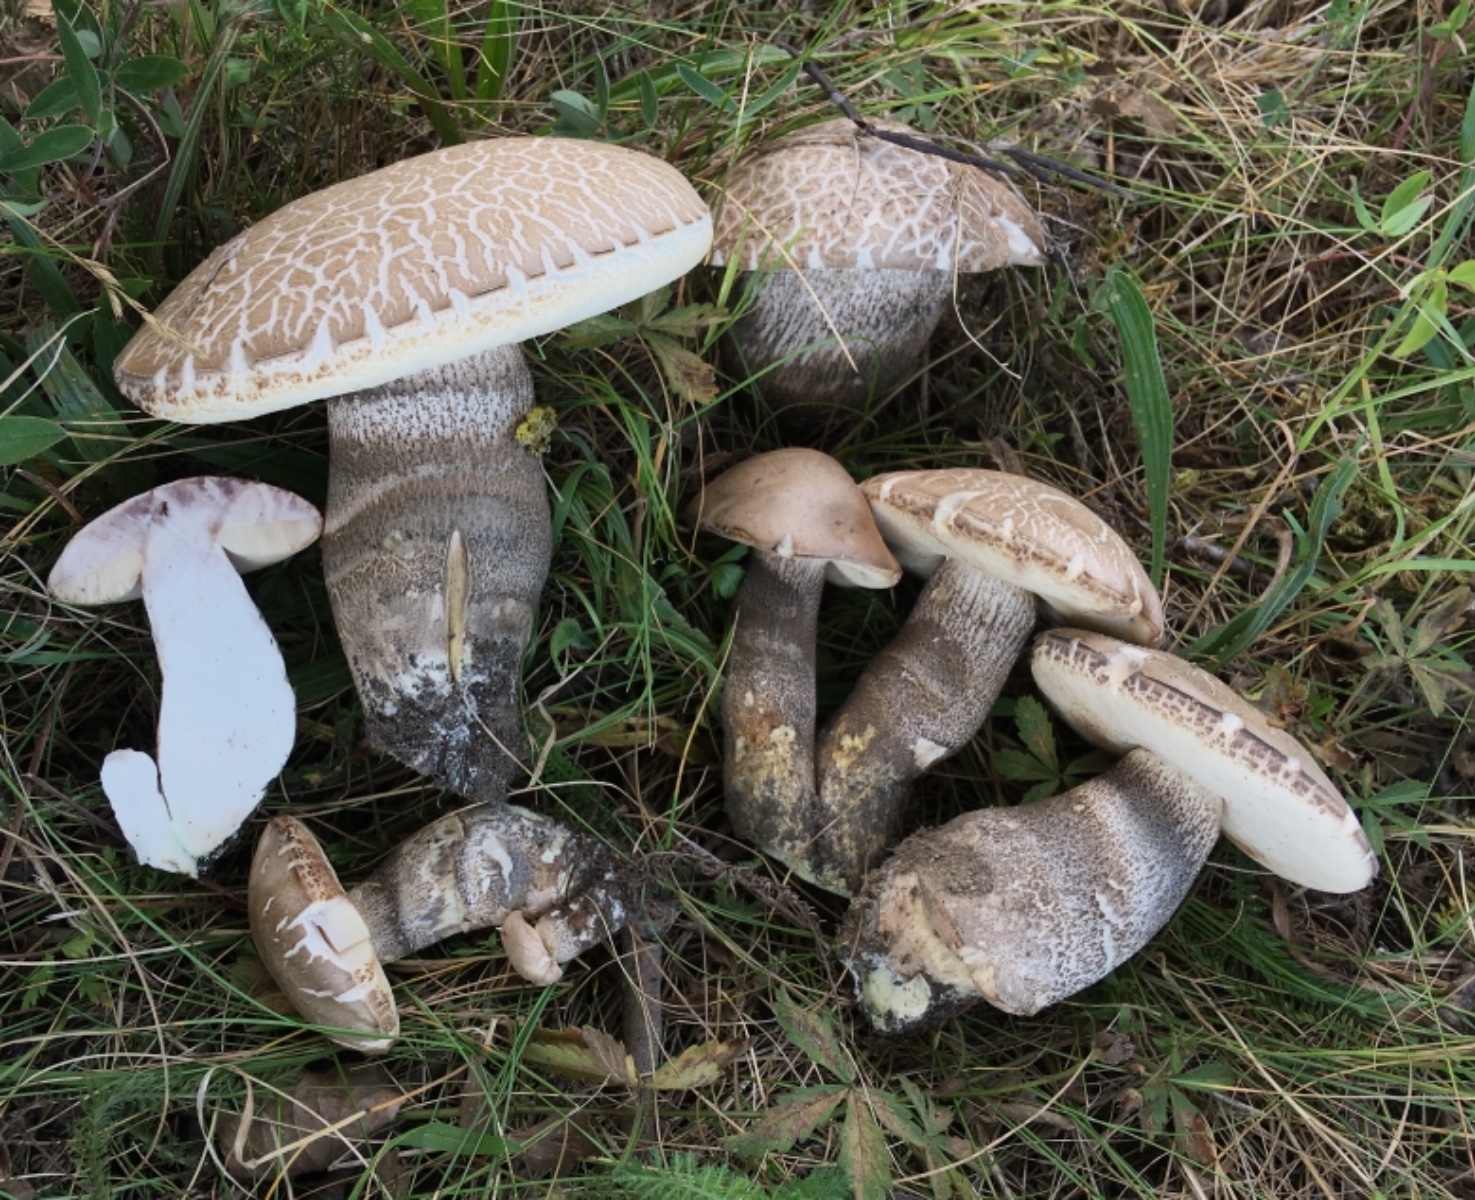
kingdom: Fungi
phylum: Basidiomycota
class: Agaricomycetes
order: Boletales
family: Boletaceae
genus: Leccinum
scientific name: Leccinum duriusculum
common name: poppel-skælrørhat
